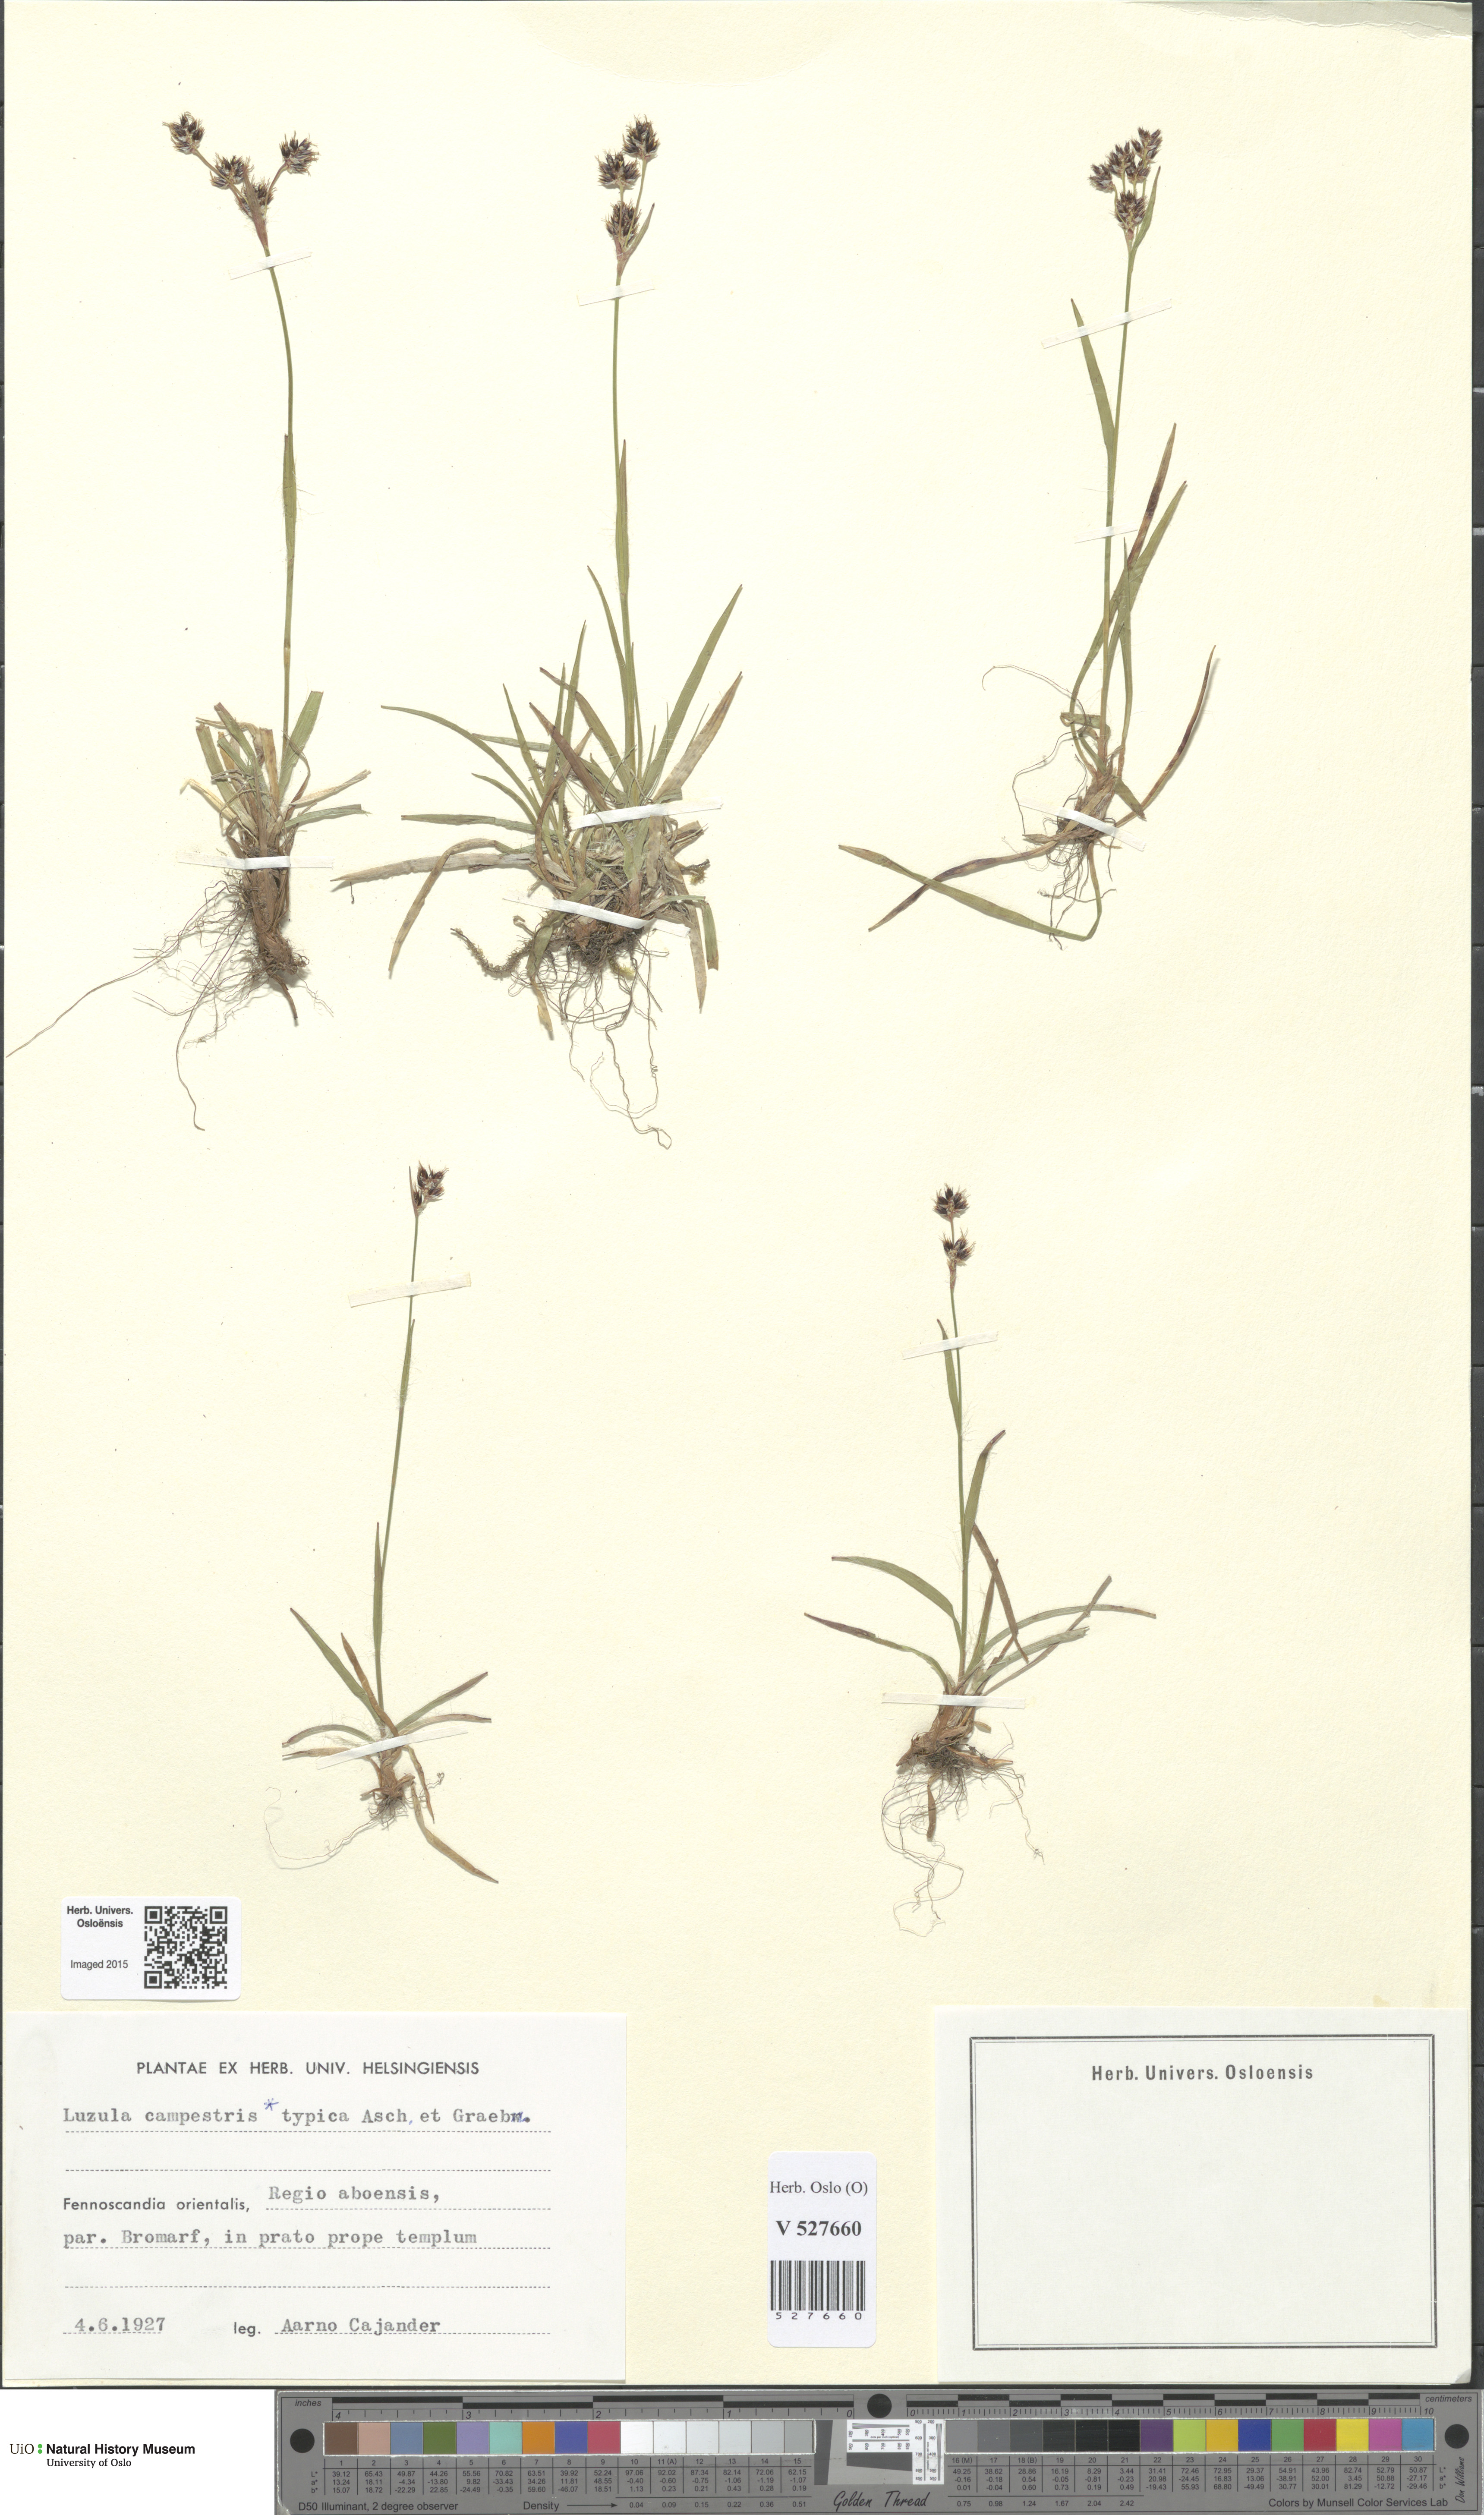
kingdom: Plantae
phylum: Tracheophyta
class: Liliopsida
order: Poales
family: Juncaceae
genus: Luzula
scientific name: Luzula campestris
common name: Field wood-rush
